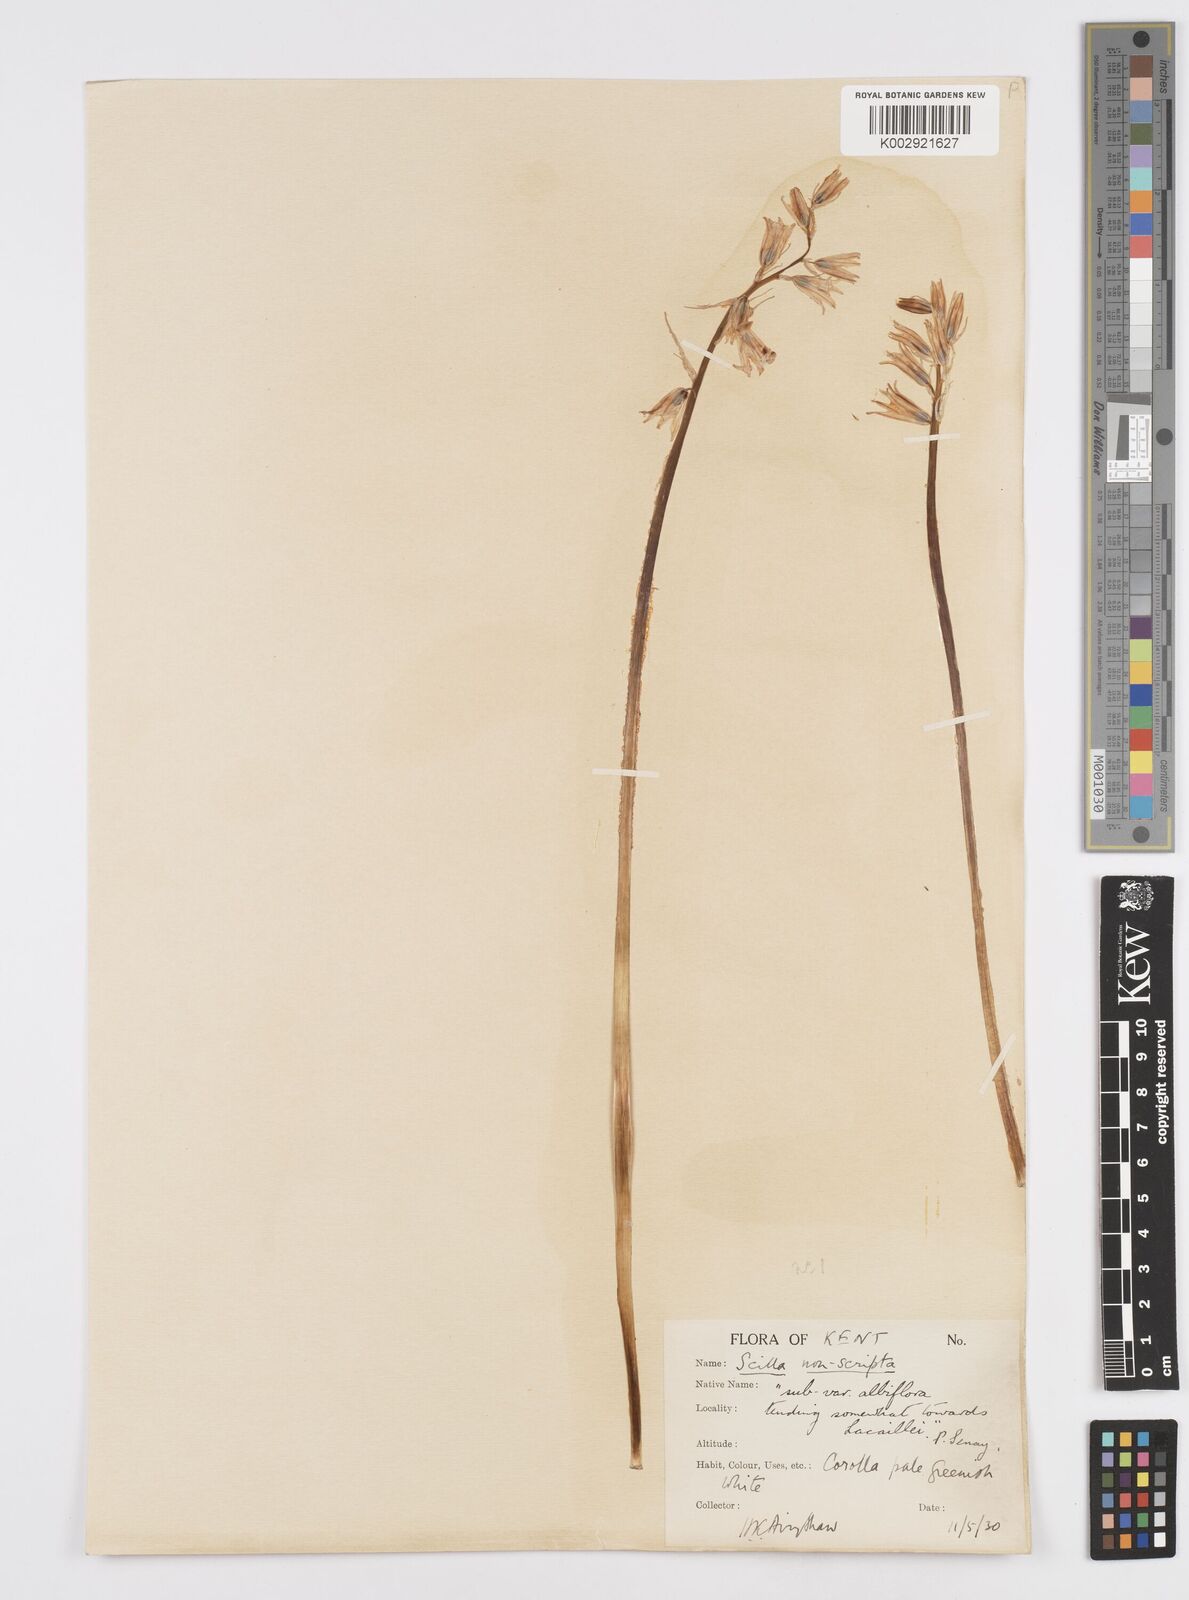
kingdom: Plantae
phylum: Tracheophyta
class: Liliopsida
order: Asparagales
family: Asparagaceae
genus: Hyacinthoides
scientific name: Hyacinthoides non-scripta
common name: Bluebell
